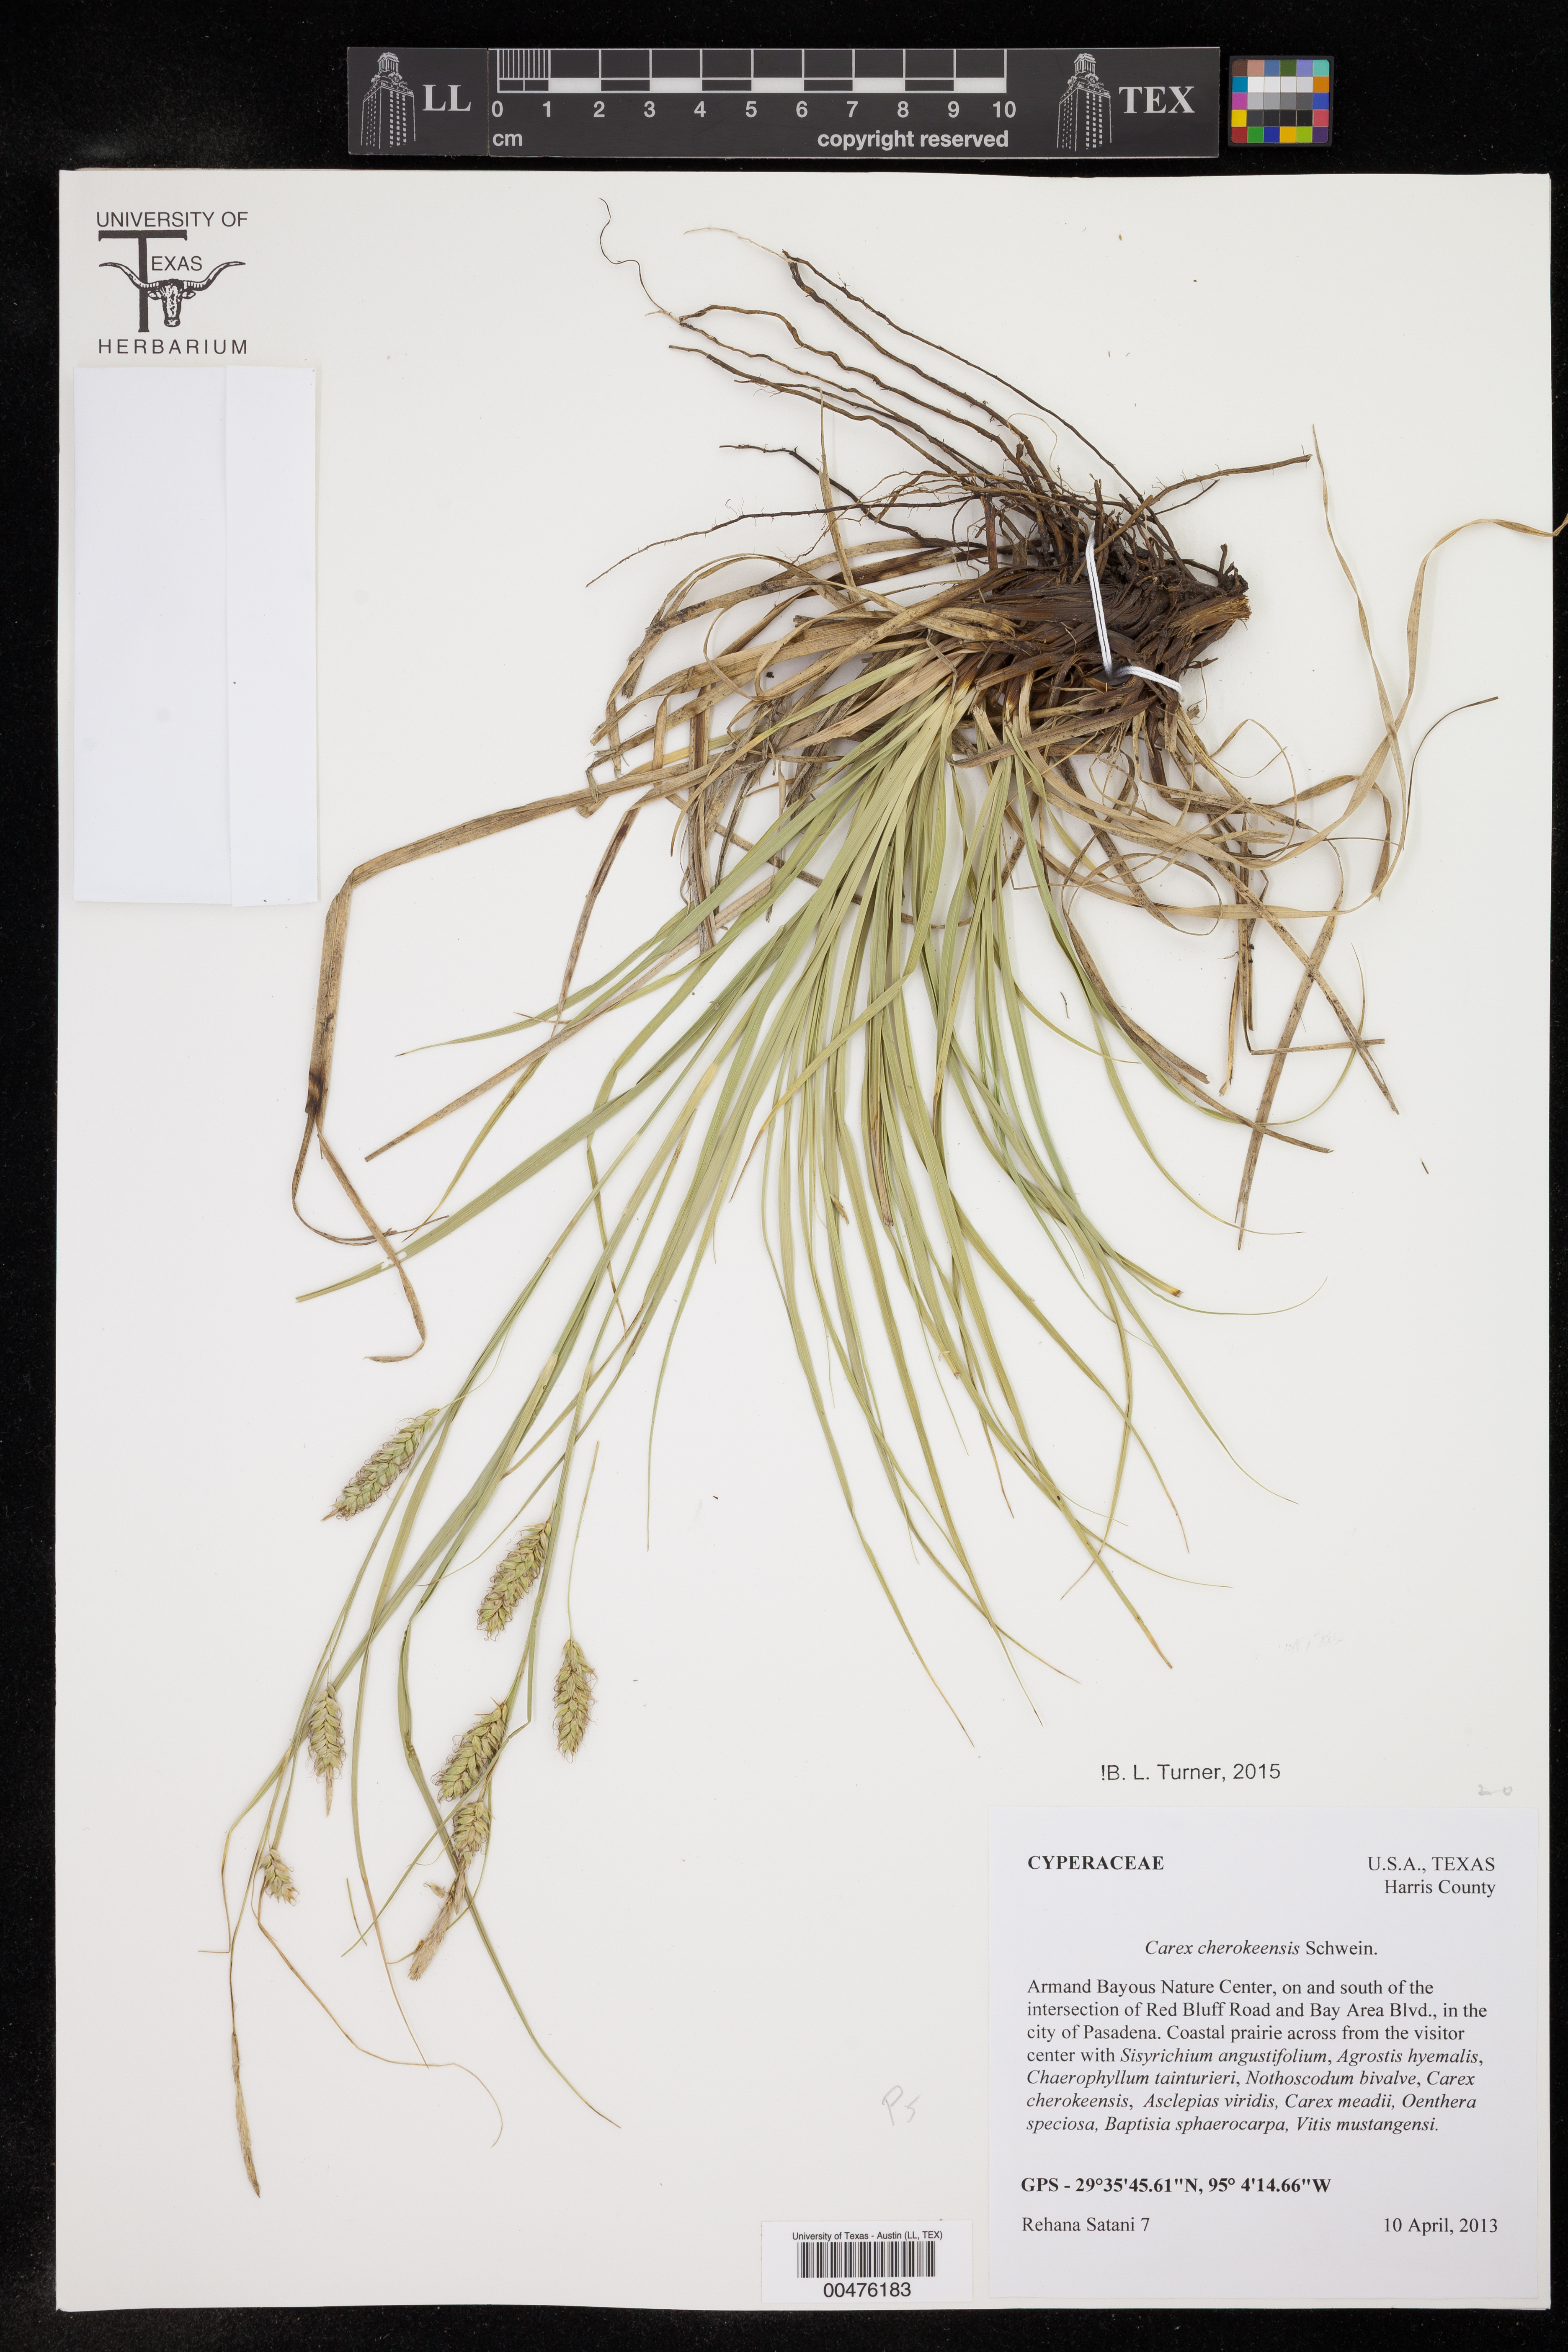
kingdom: Plantae
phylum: Tracheophyta
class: Liliopsida
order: Poales
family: Cyperaceae
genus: Carex
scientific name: Carex cherokeensis
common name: Cherokee sedge
